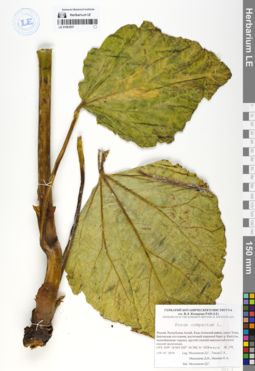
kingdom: Plantae
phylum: Tracheophyta
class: Magnoliopsida
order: Caryophyllales
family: Polygonaceae
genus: Rheum
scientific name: Rheum compactum
